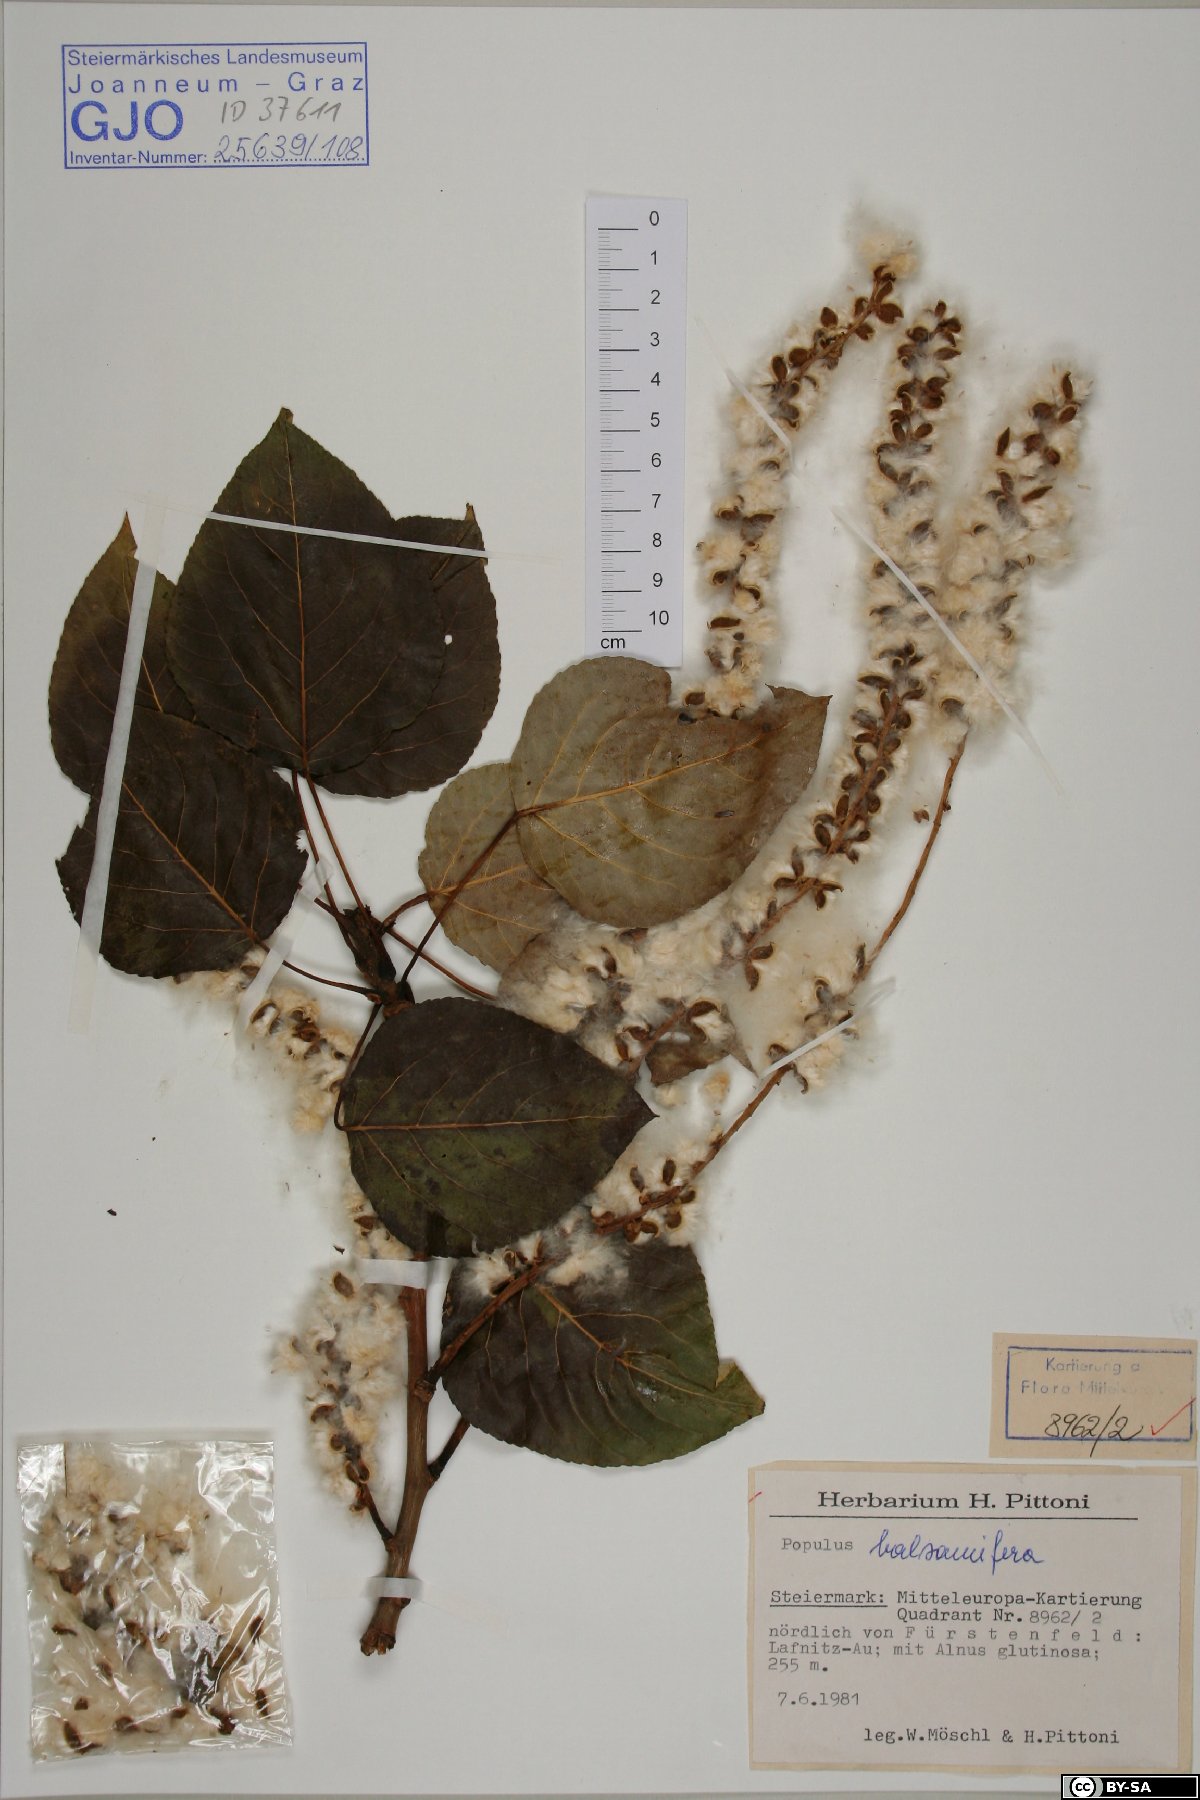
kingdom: Plantae
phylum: Tracheophyta
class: Magnoliopsida
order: Malpighiales
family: Salicaceae
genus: Populus
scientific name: Populus balsamifera
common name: Balsam poplar
